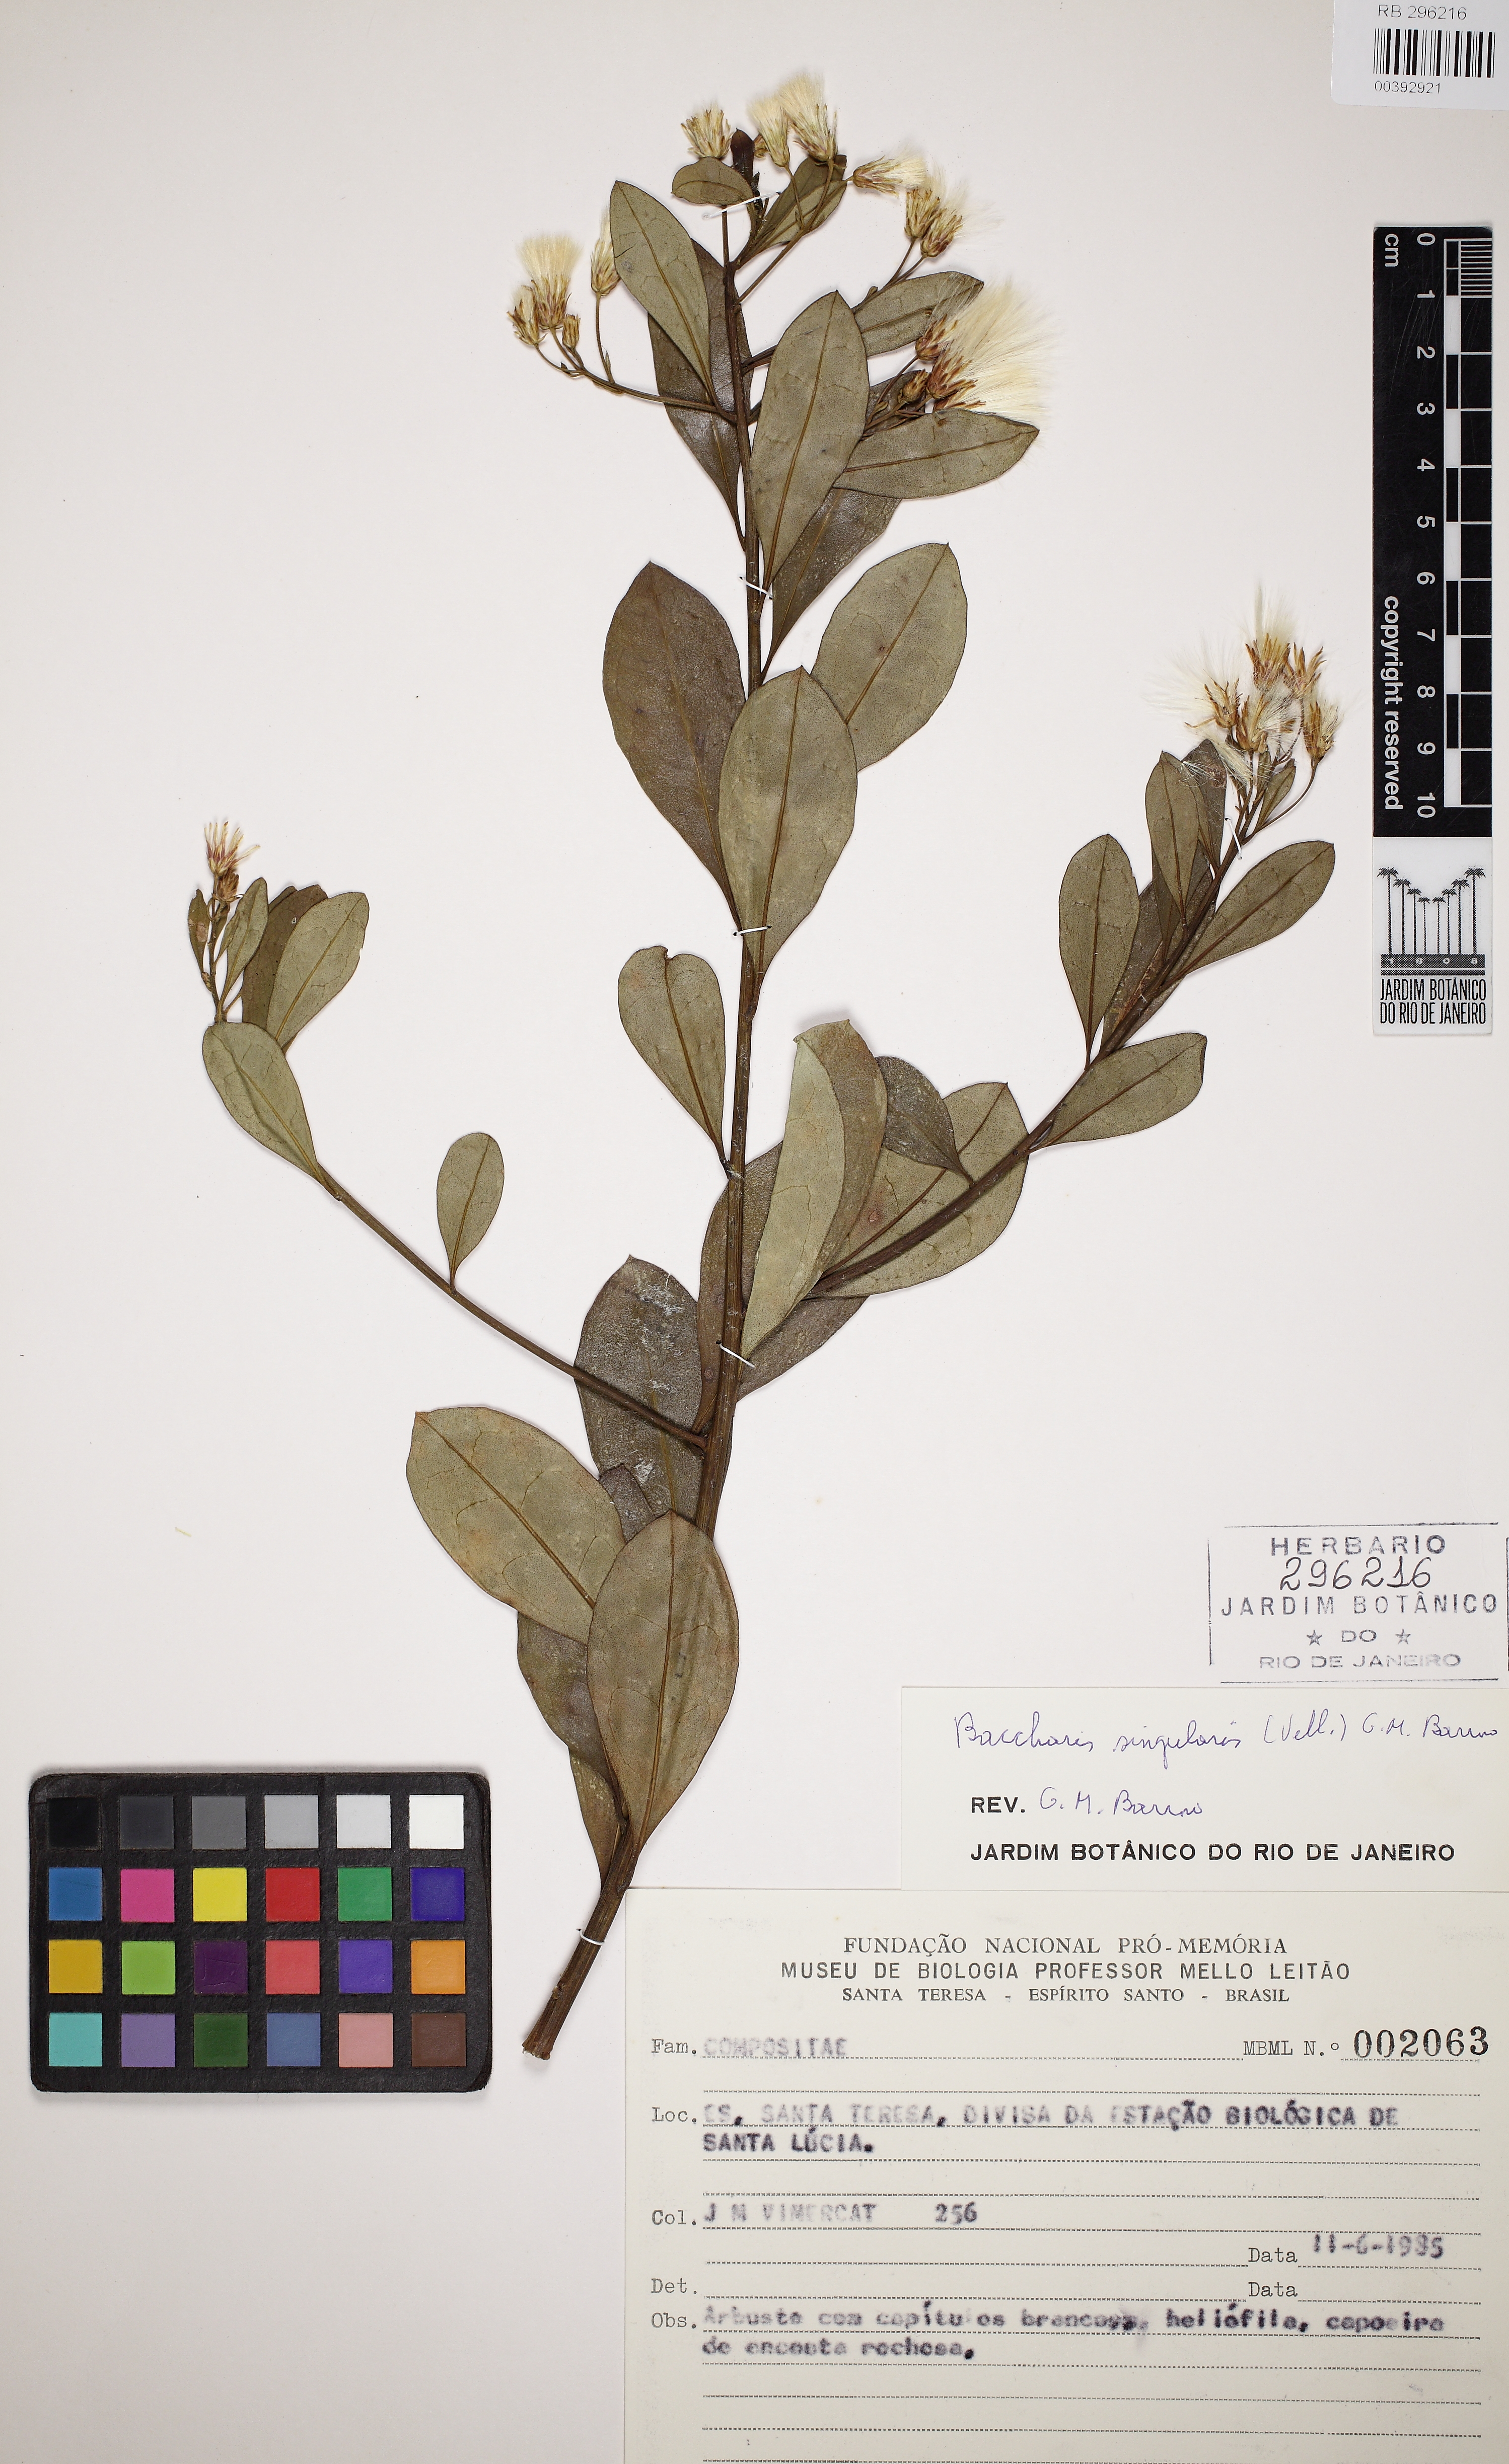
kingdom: Plantae
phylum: Tracheophyta
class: Magnoliopsida
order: Asterales
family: Asteraceae
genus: Baccharis
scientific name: Baccharis singularis
